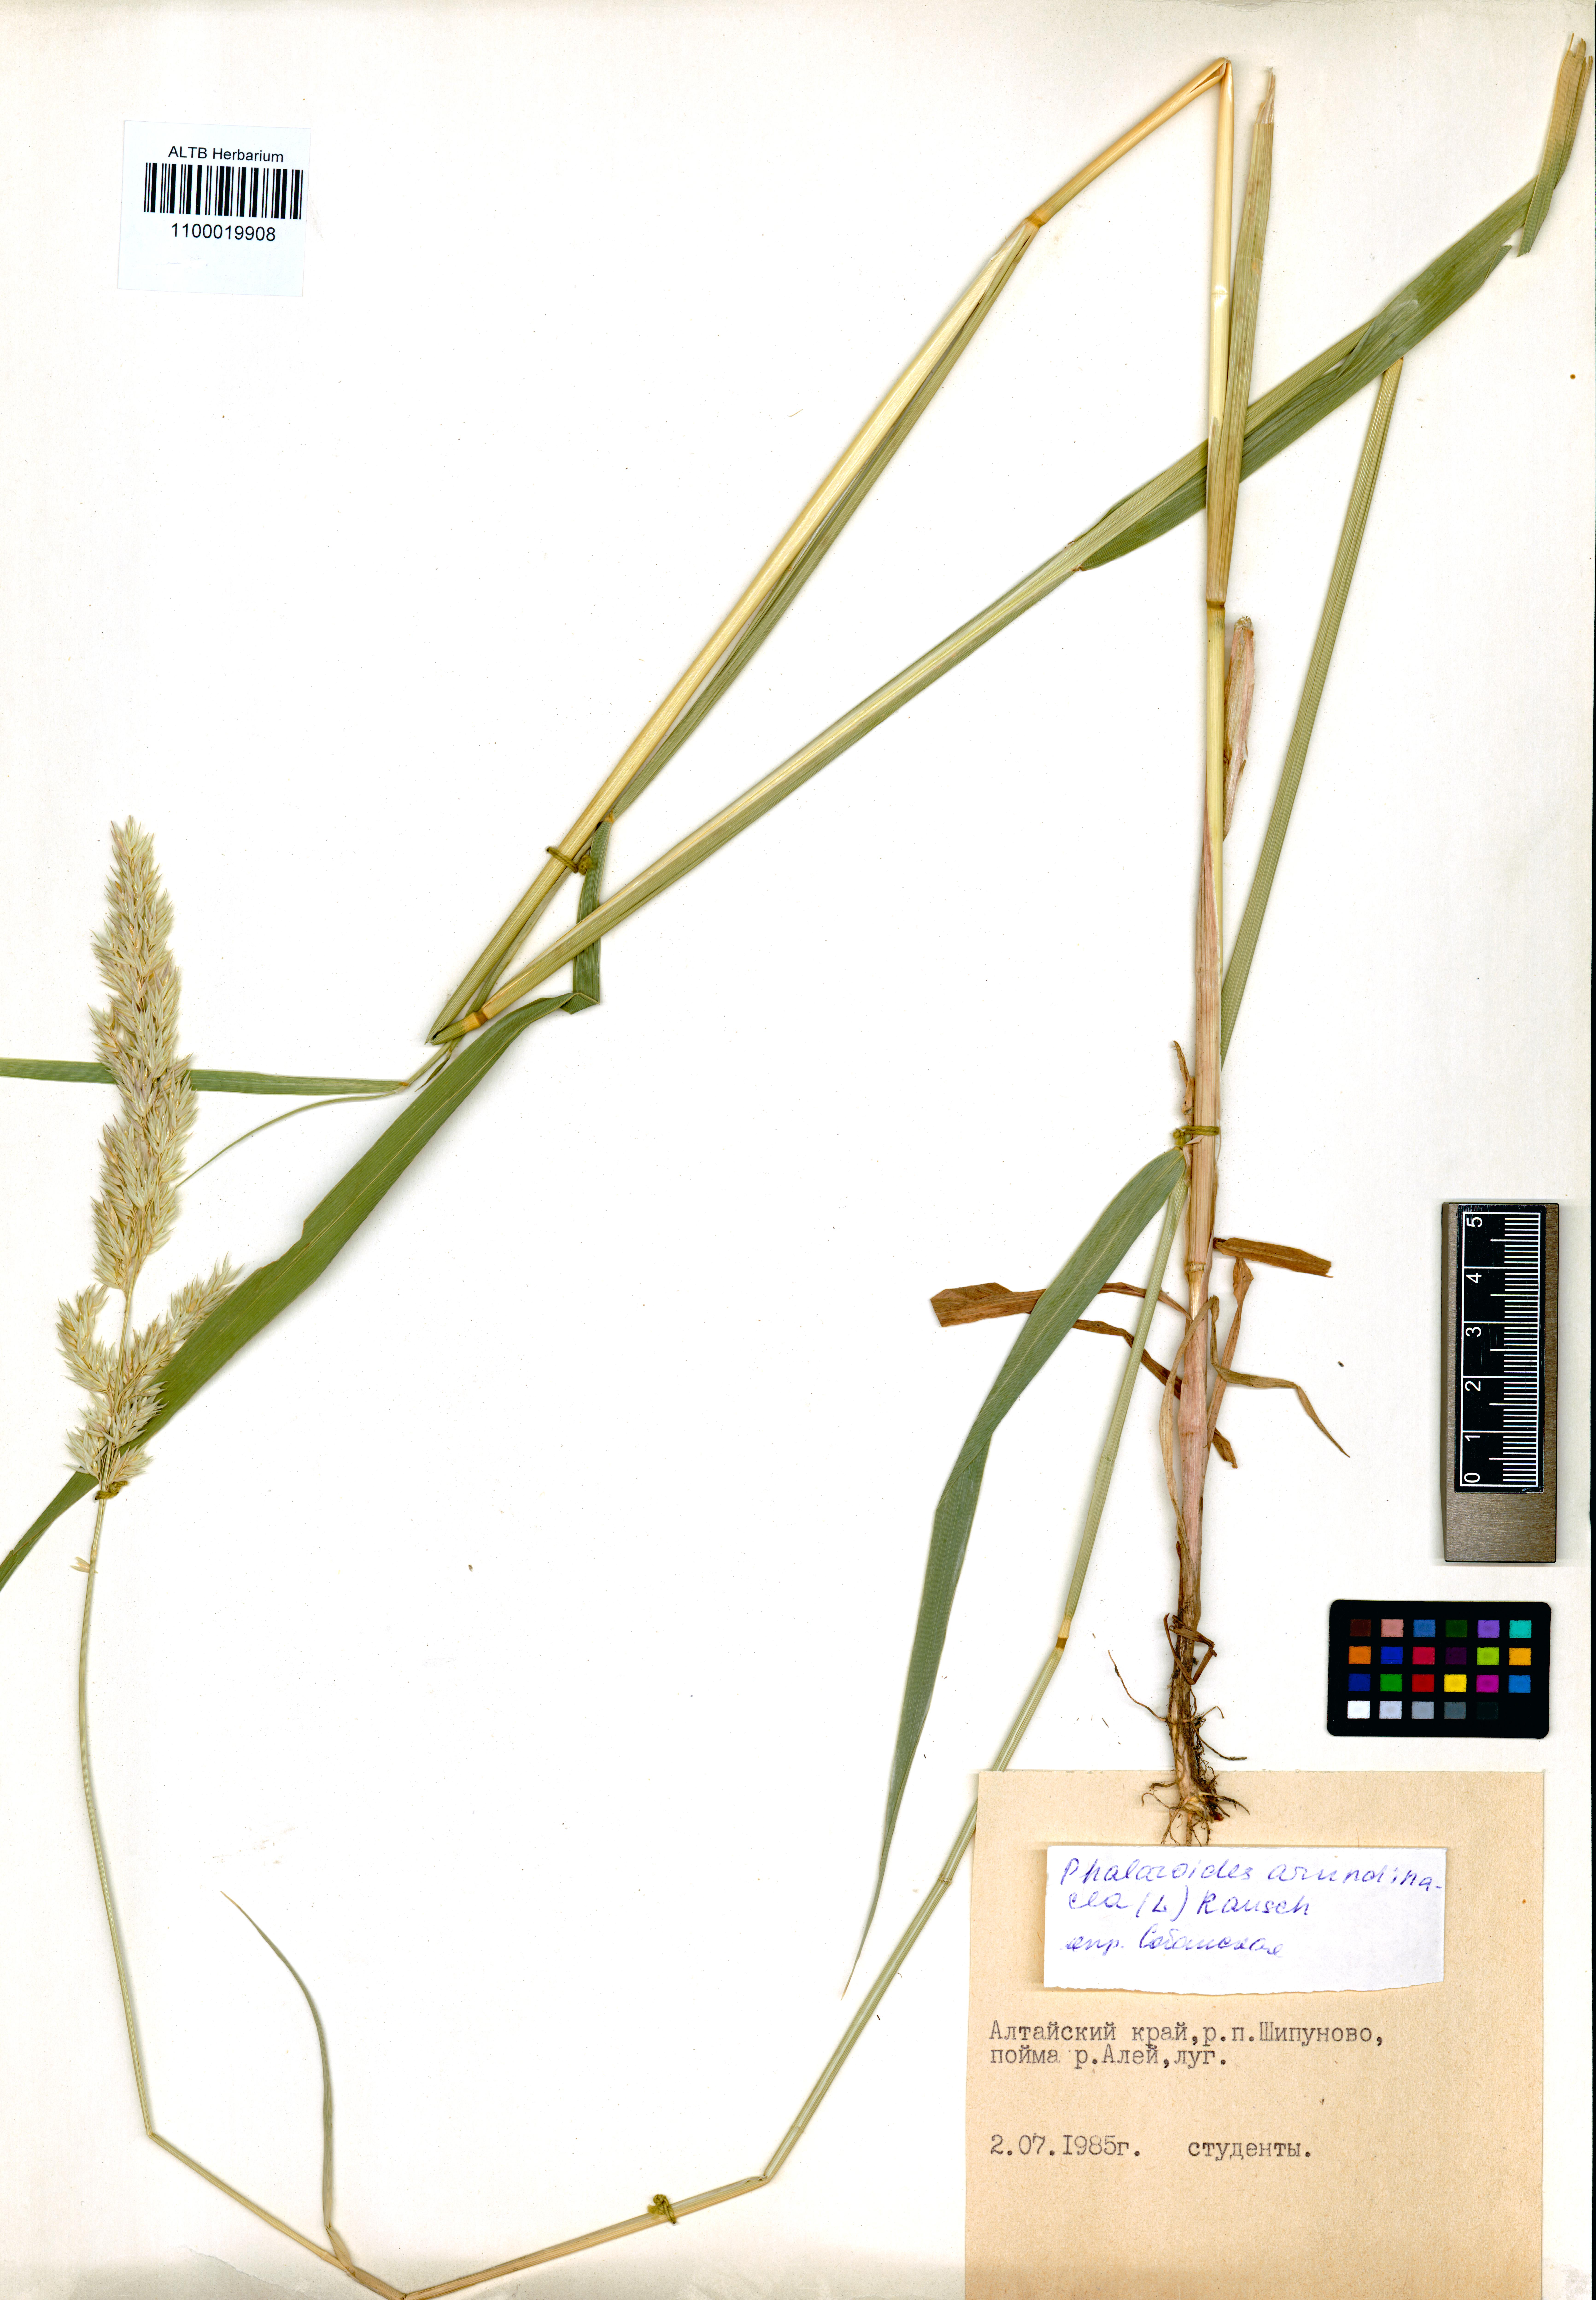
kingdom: Plantae
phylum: Tracheophyta
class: Liliopsida
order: Poales
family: Poaceae
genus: Phalaris
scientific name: Phalaris arundinacea
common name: Reed canary-grass
